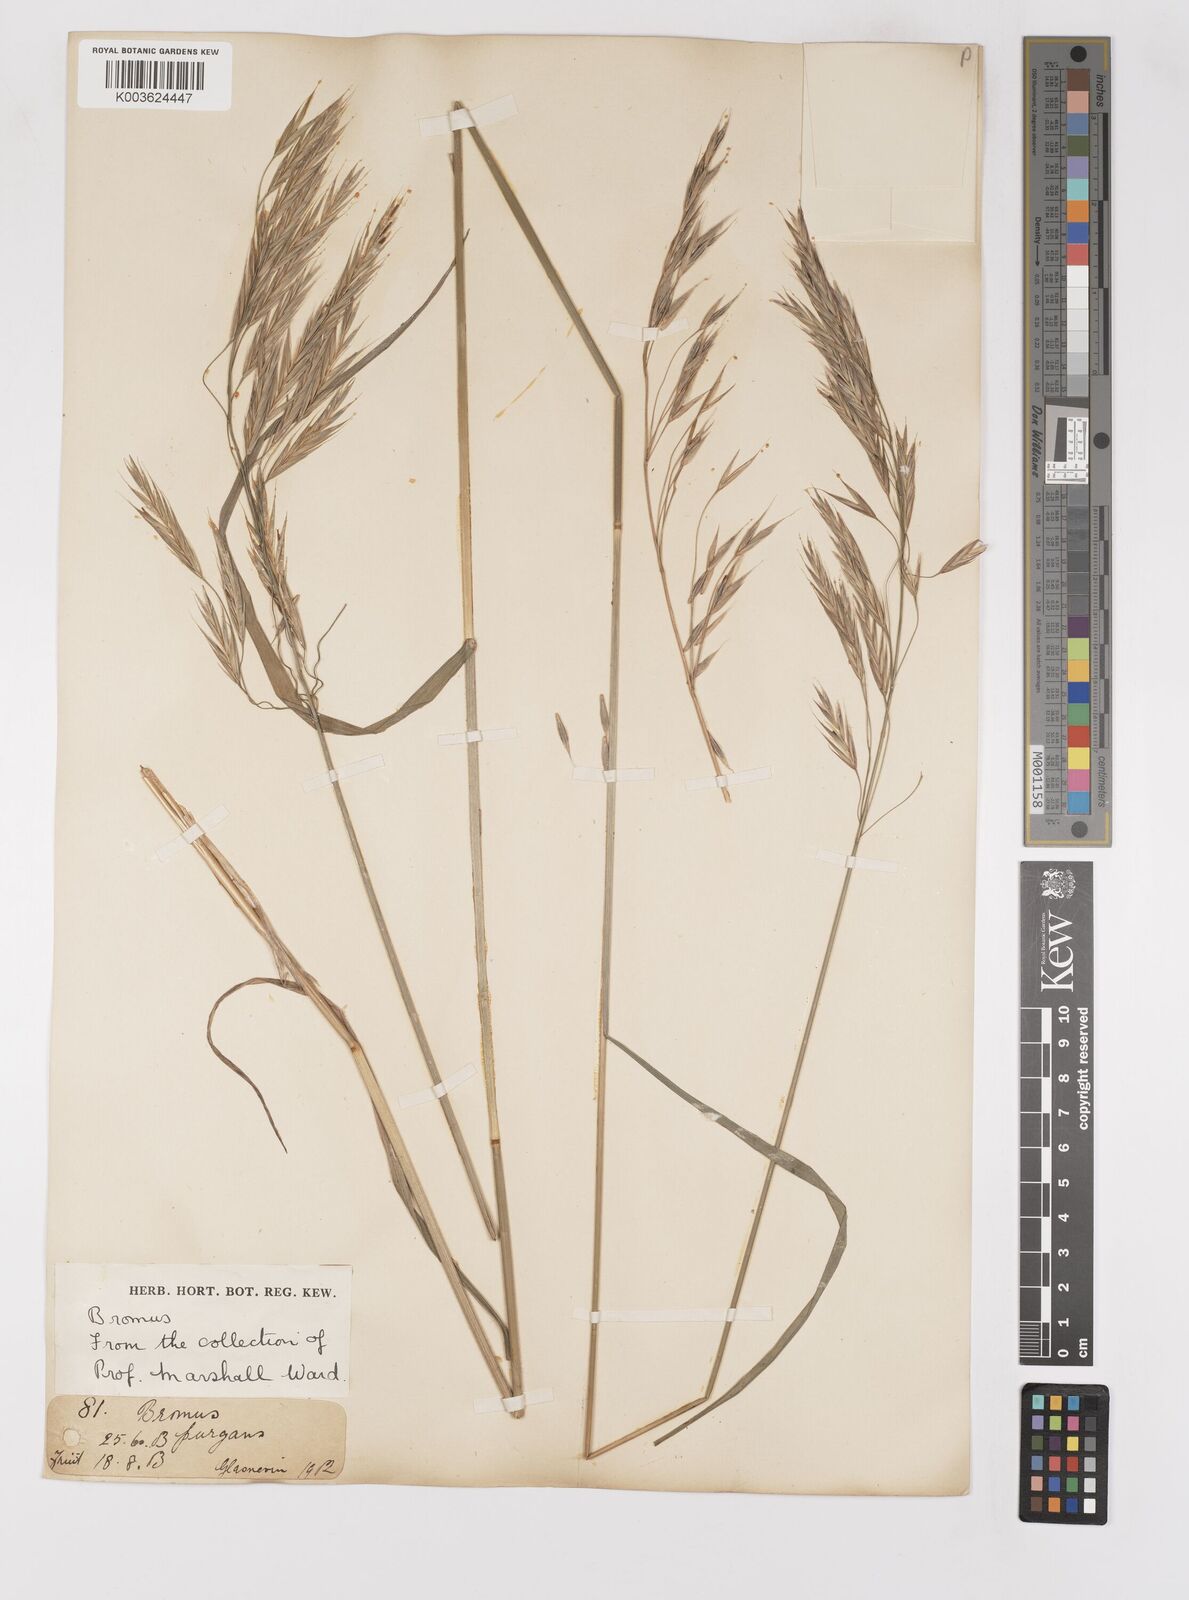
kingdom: Plantae
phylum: Tracheophyta
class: Liliopsida
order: Poales
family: Poaceae
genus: Bromus
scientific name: Bromus
